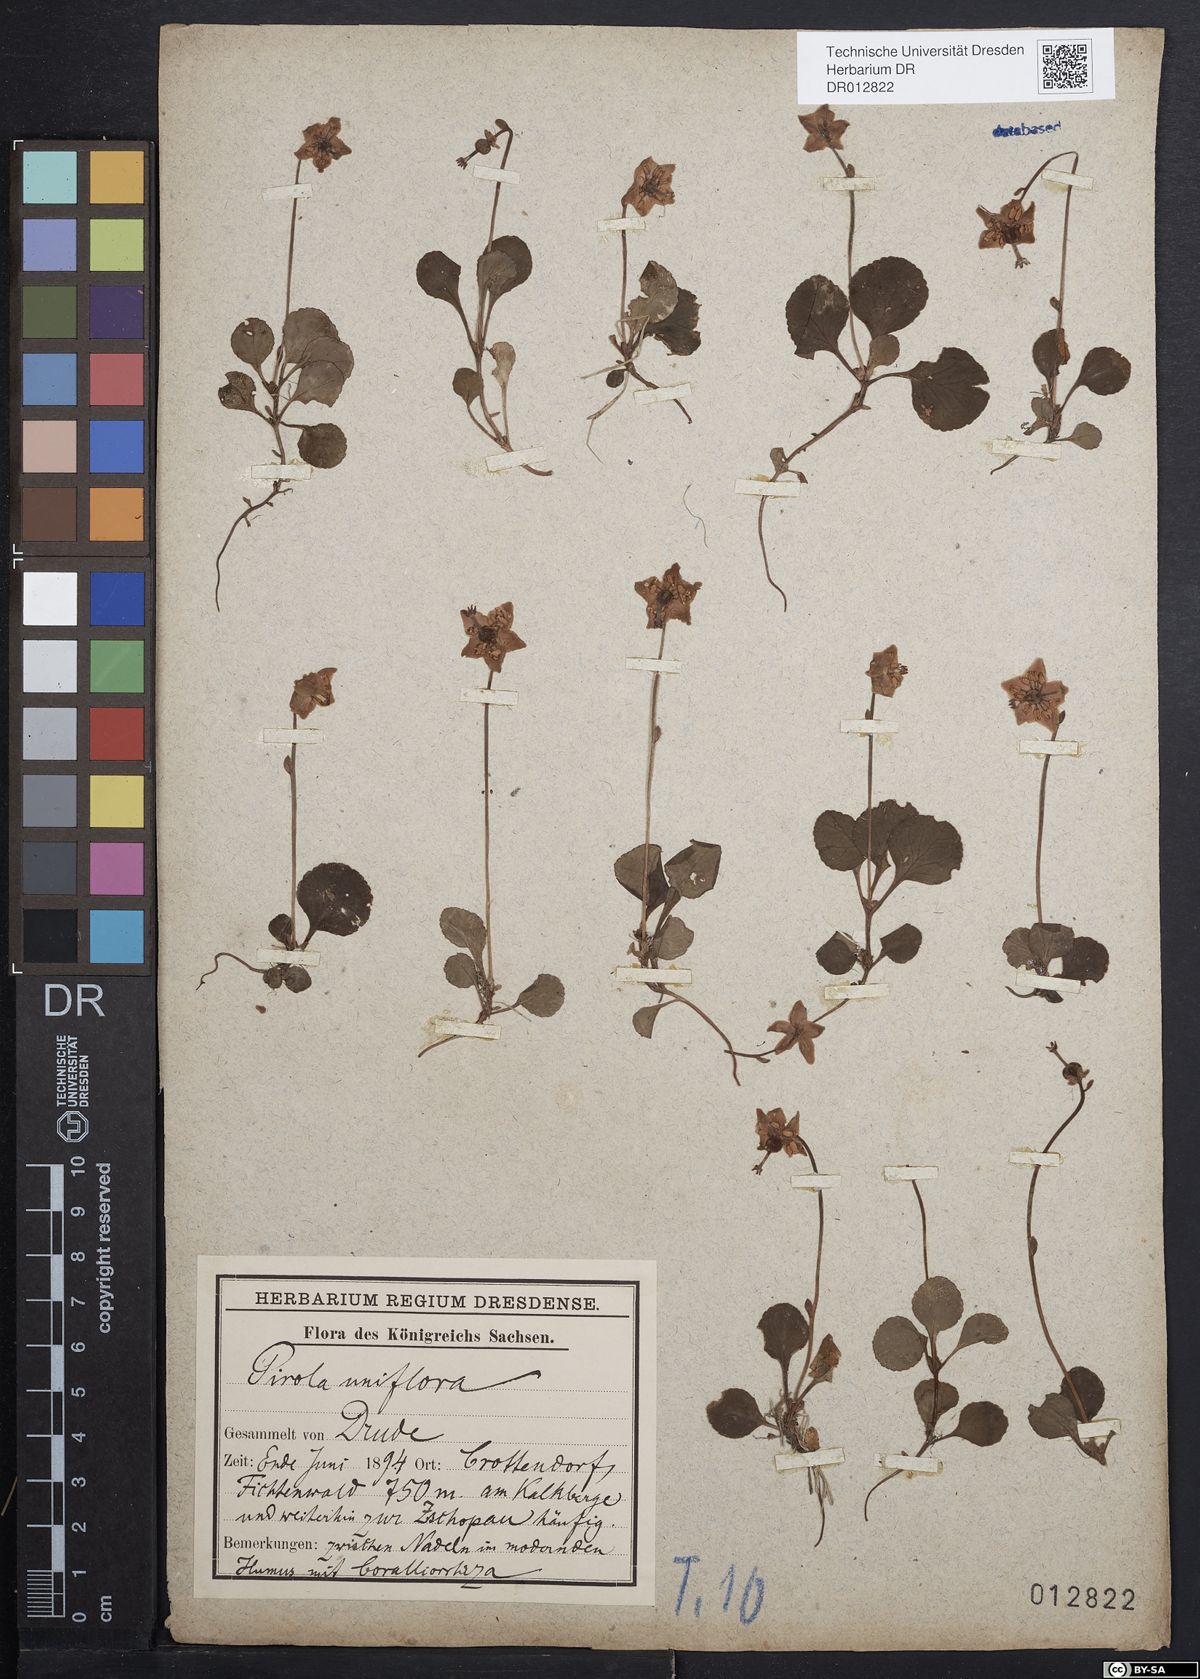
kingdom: Plantae
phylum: Tracheophyta
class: Magnoliopsida
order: Ericales
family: Ericaceae
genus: Moneses
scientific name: Moneses uniflora
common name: One-flowered wintergreen
